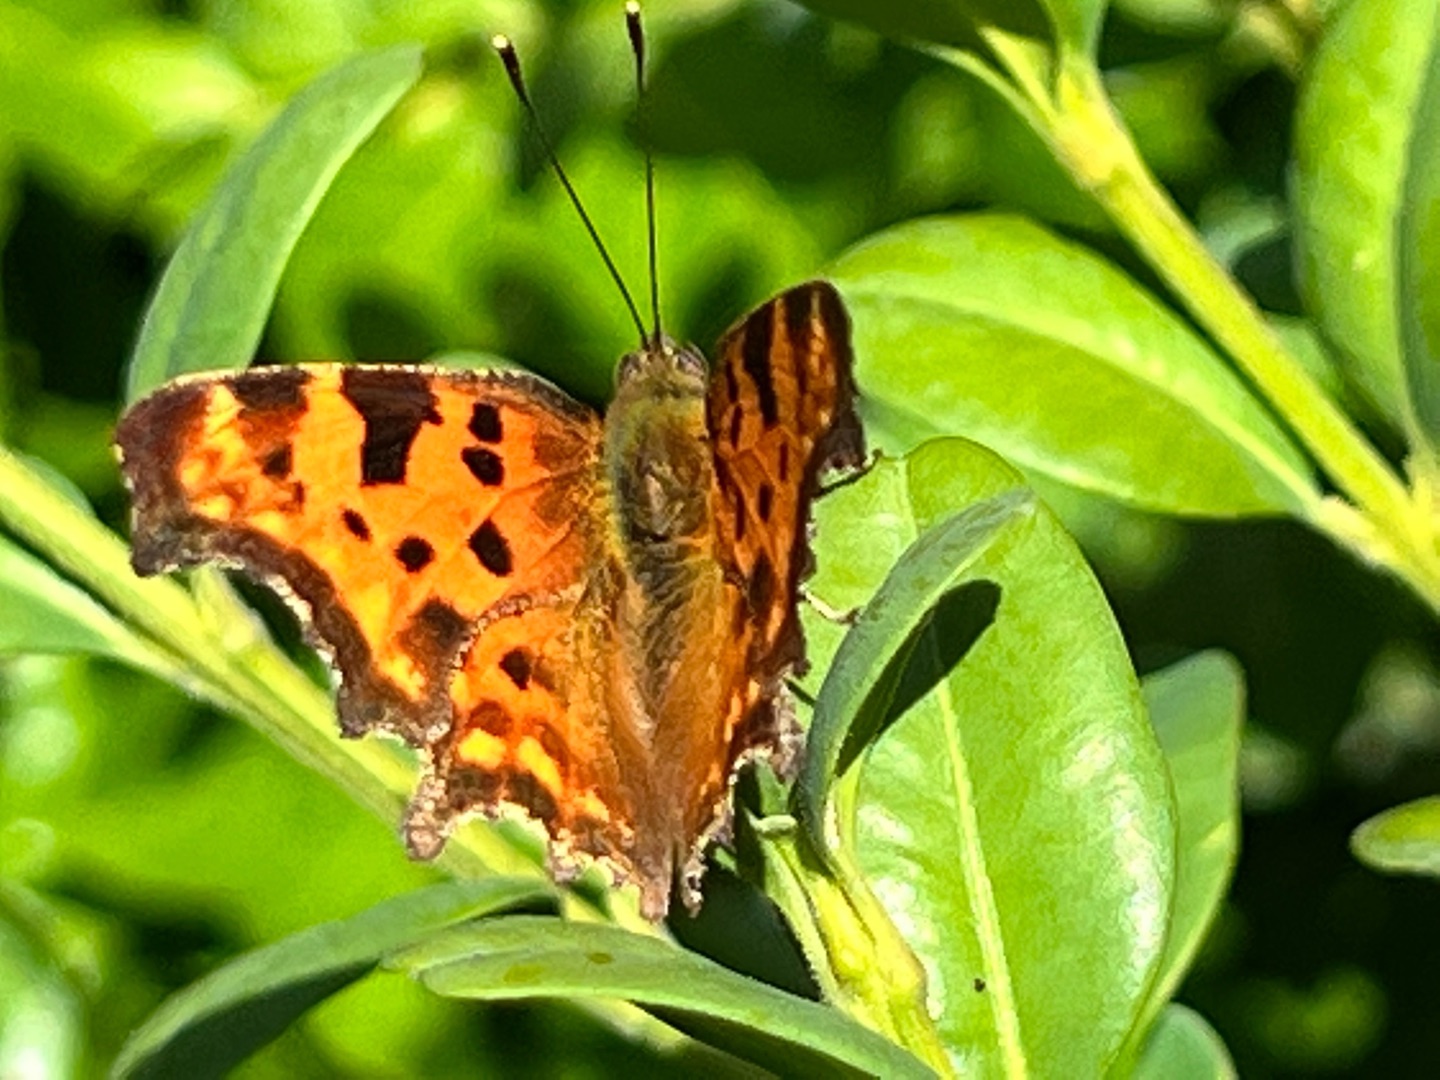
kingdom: Animalia
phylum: Arthropoda
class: Insecta
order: Lepidoptera
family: Nymphalidae
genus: Polygonia
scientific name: Polygonia c-album
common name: Det hvide C
